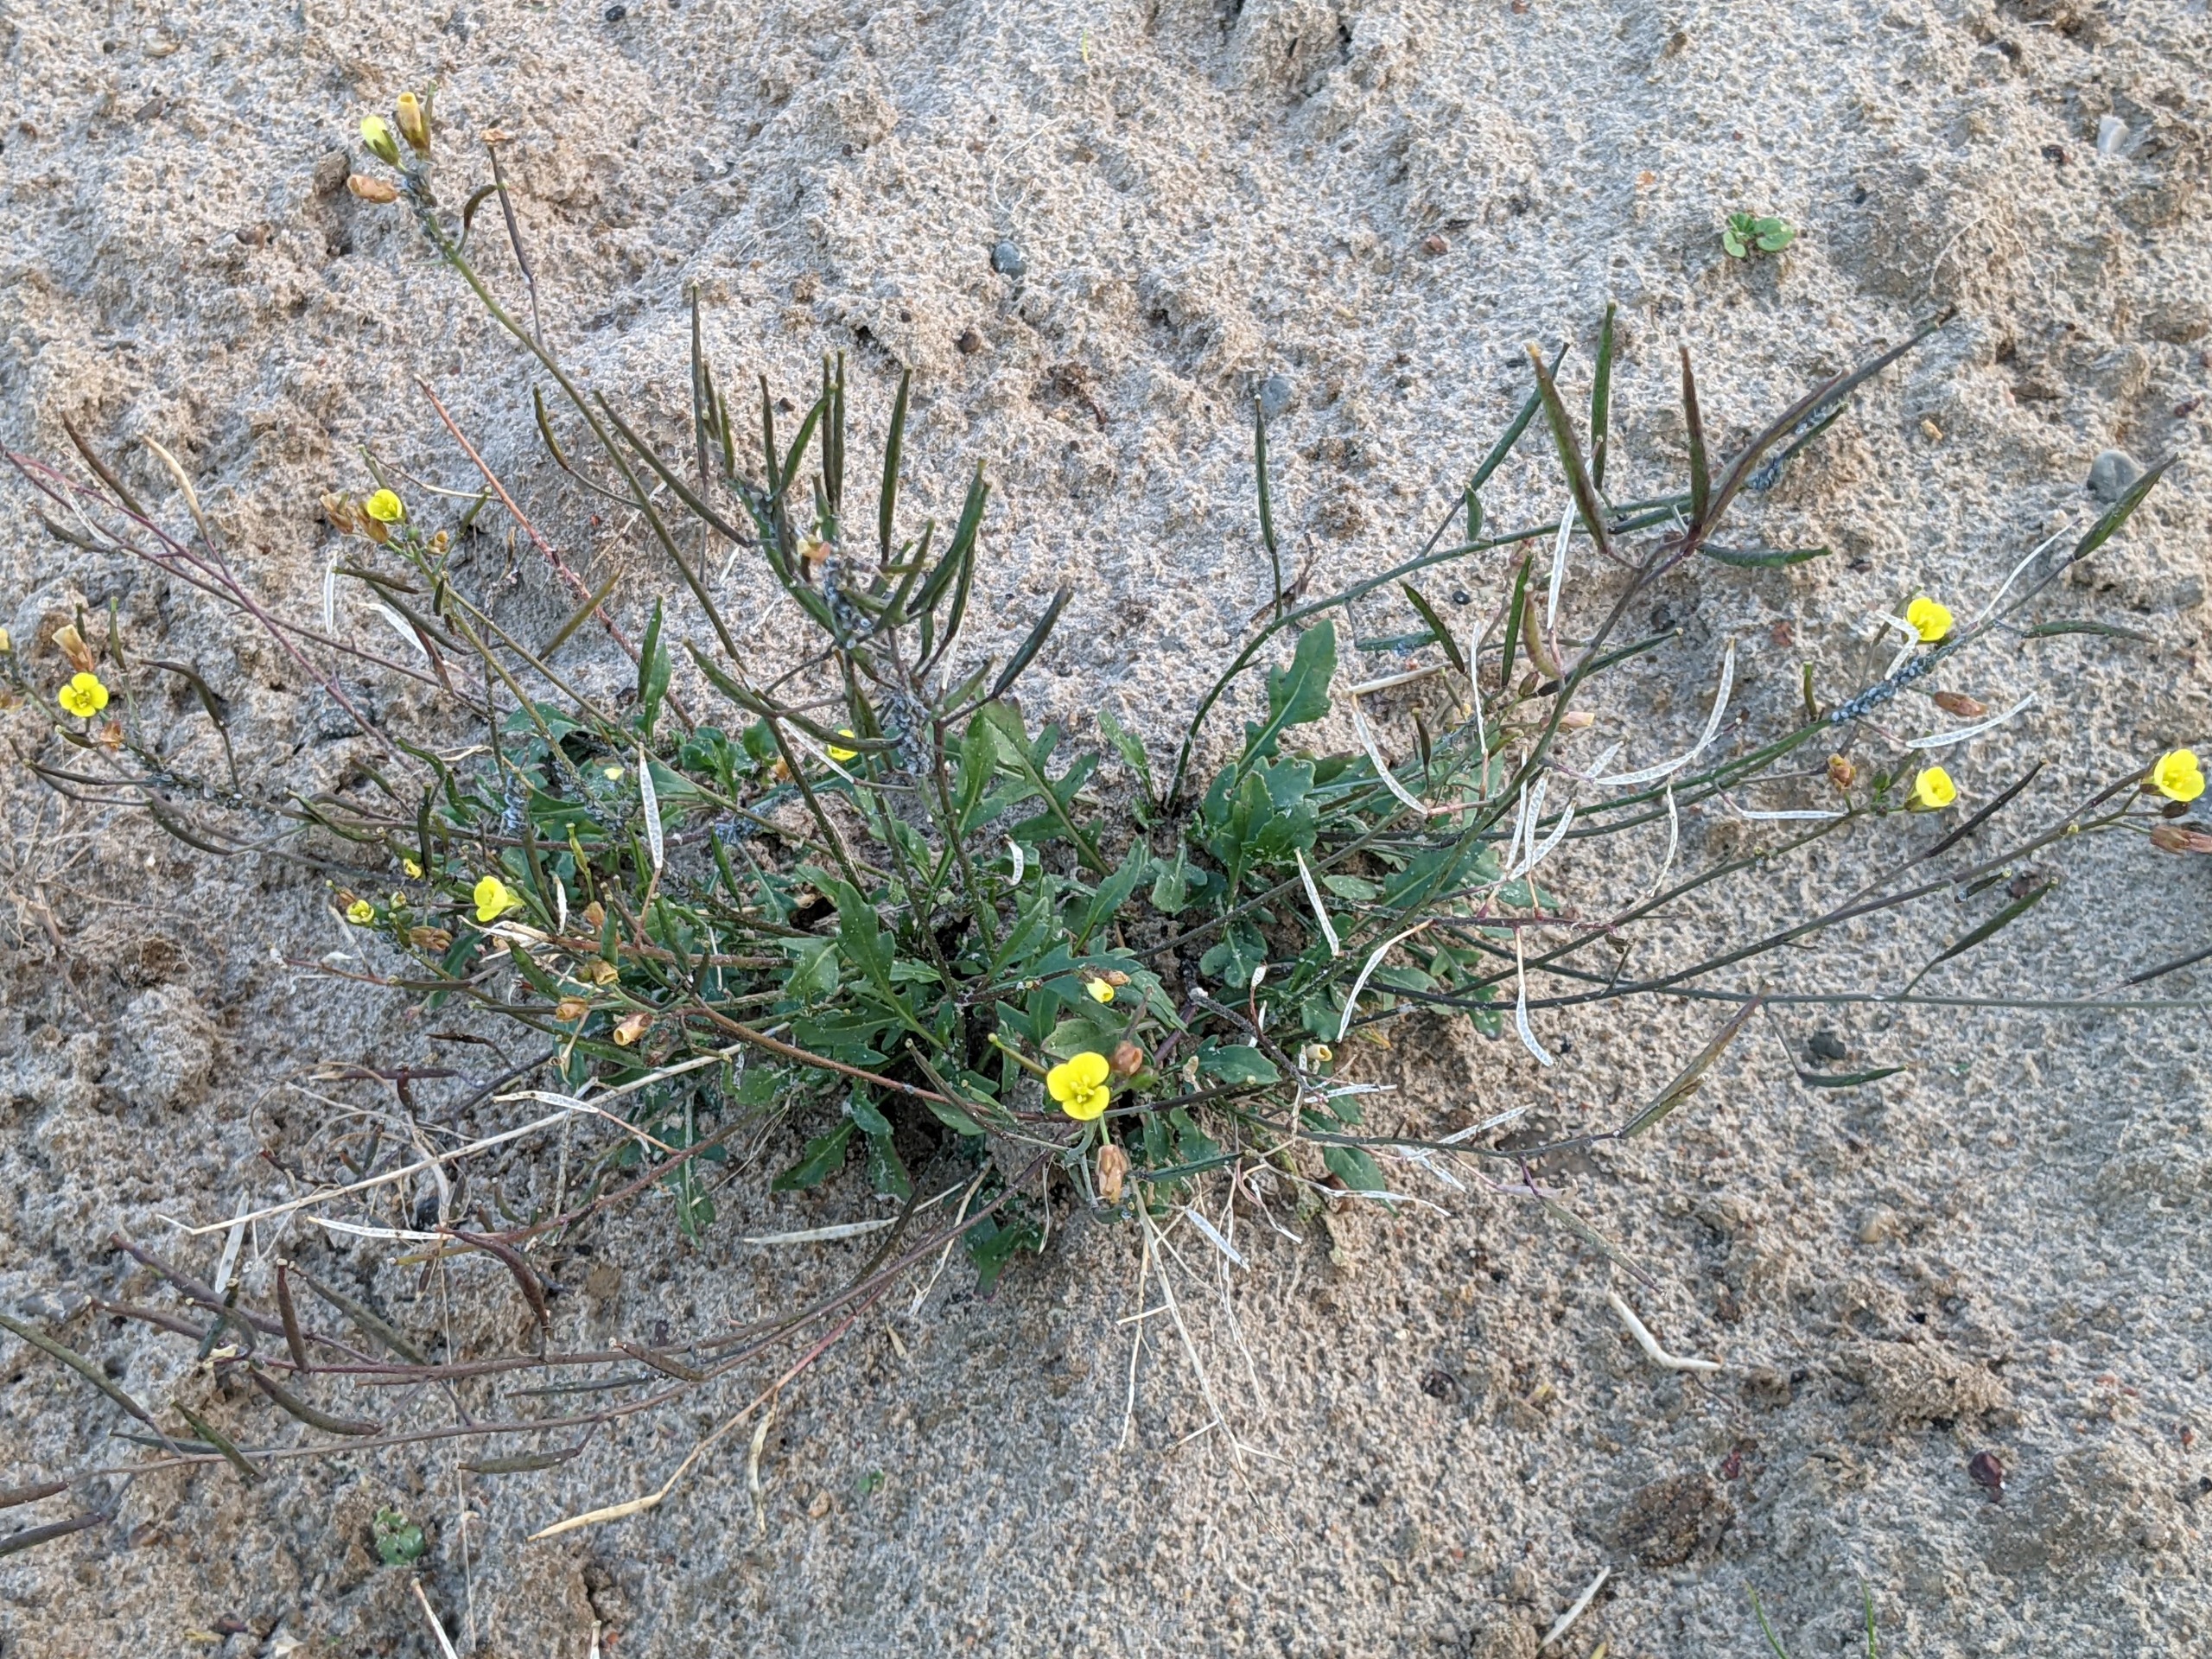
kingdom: Plantae
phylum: Tracheophyta
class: Magnoliopsida
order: Brassicales
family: Brassicaceae
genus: Diplotaxis
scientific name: Diplotaxis muralis
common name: Mursennep
